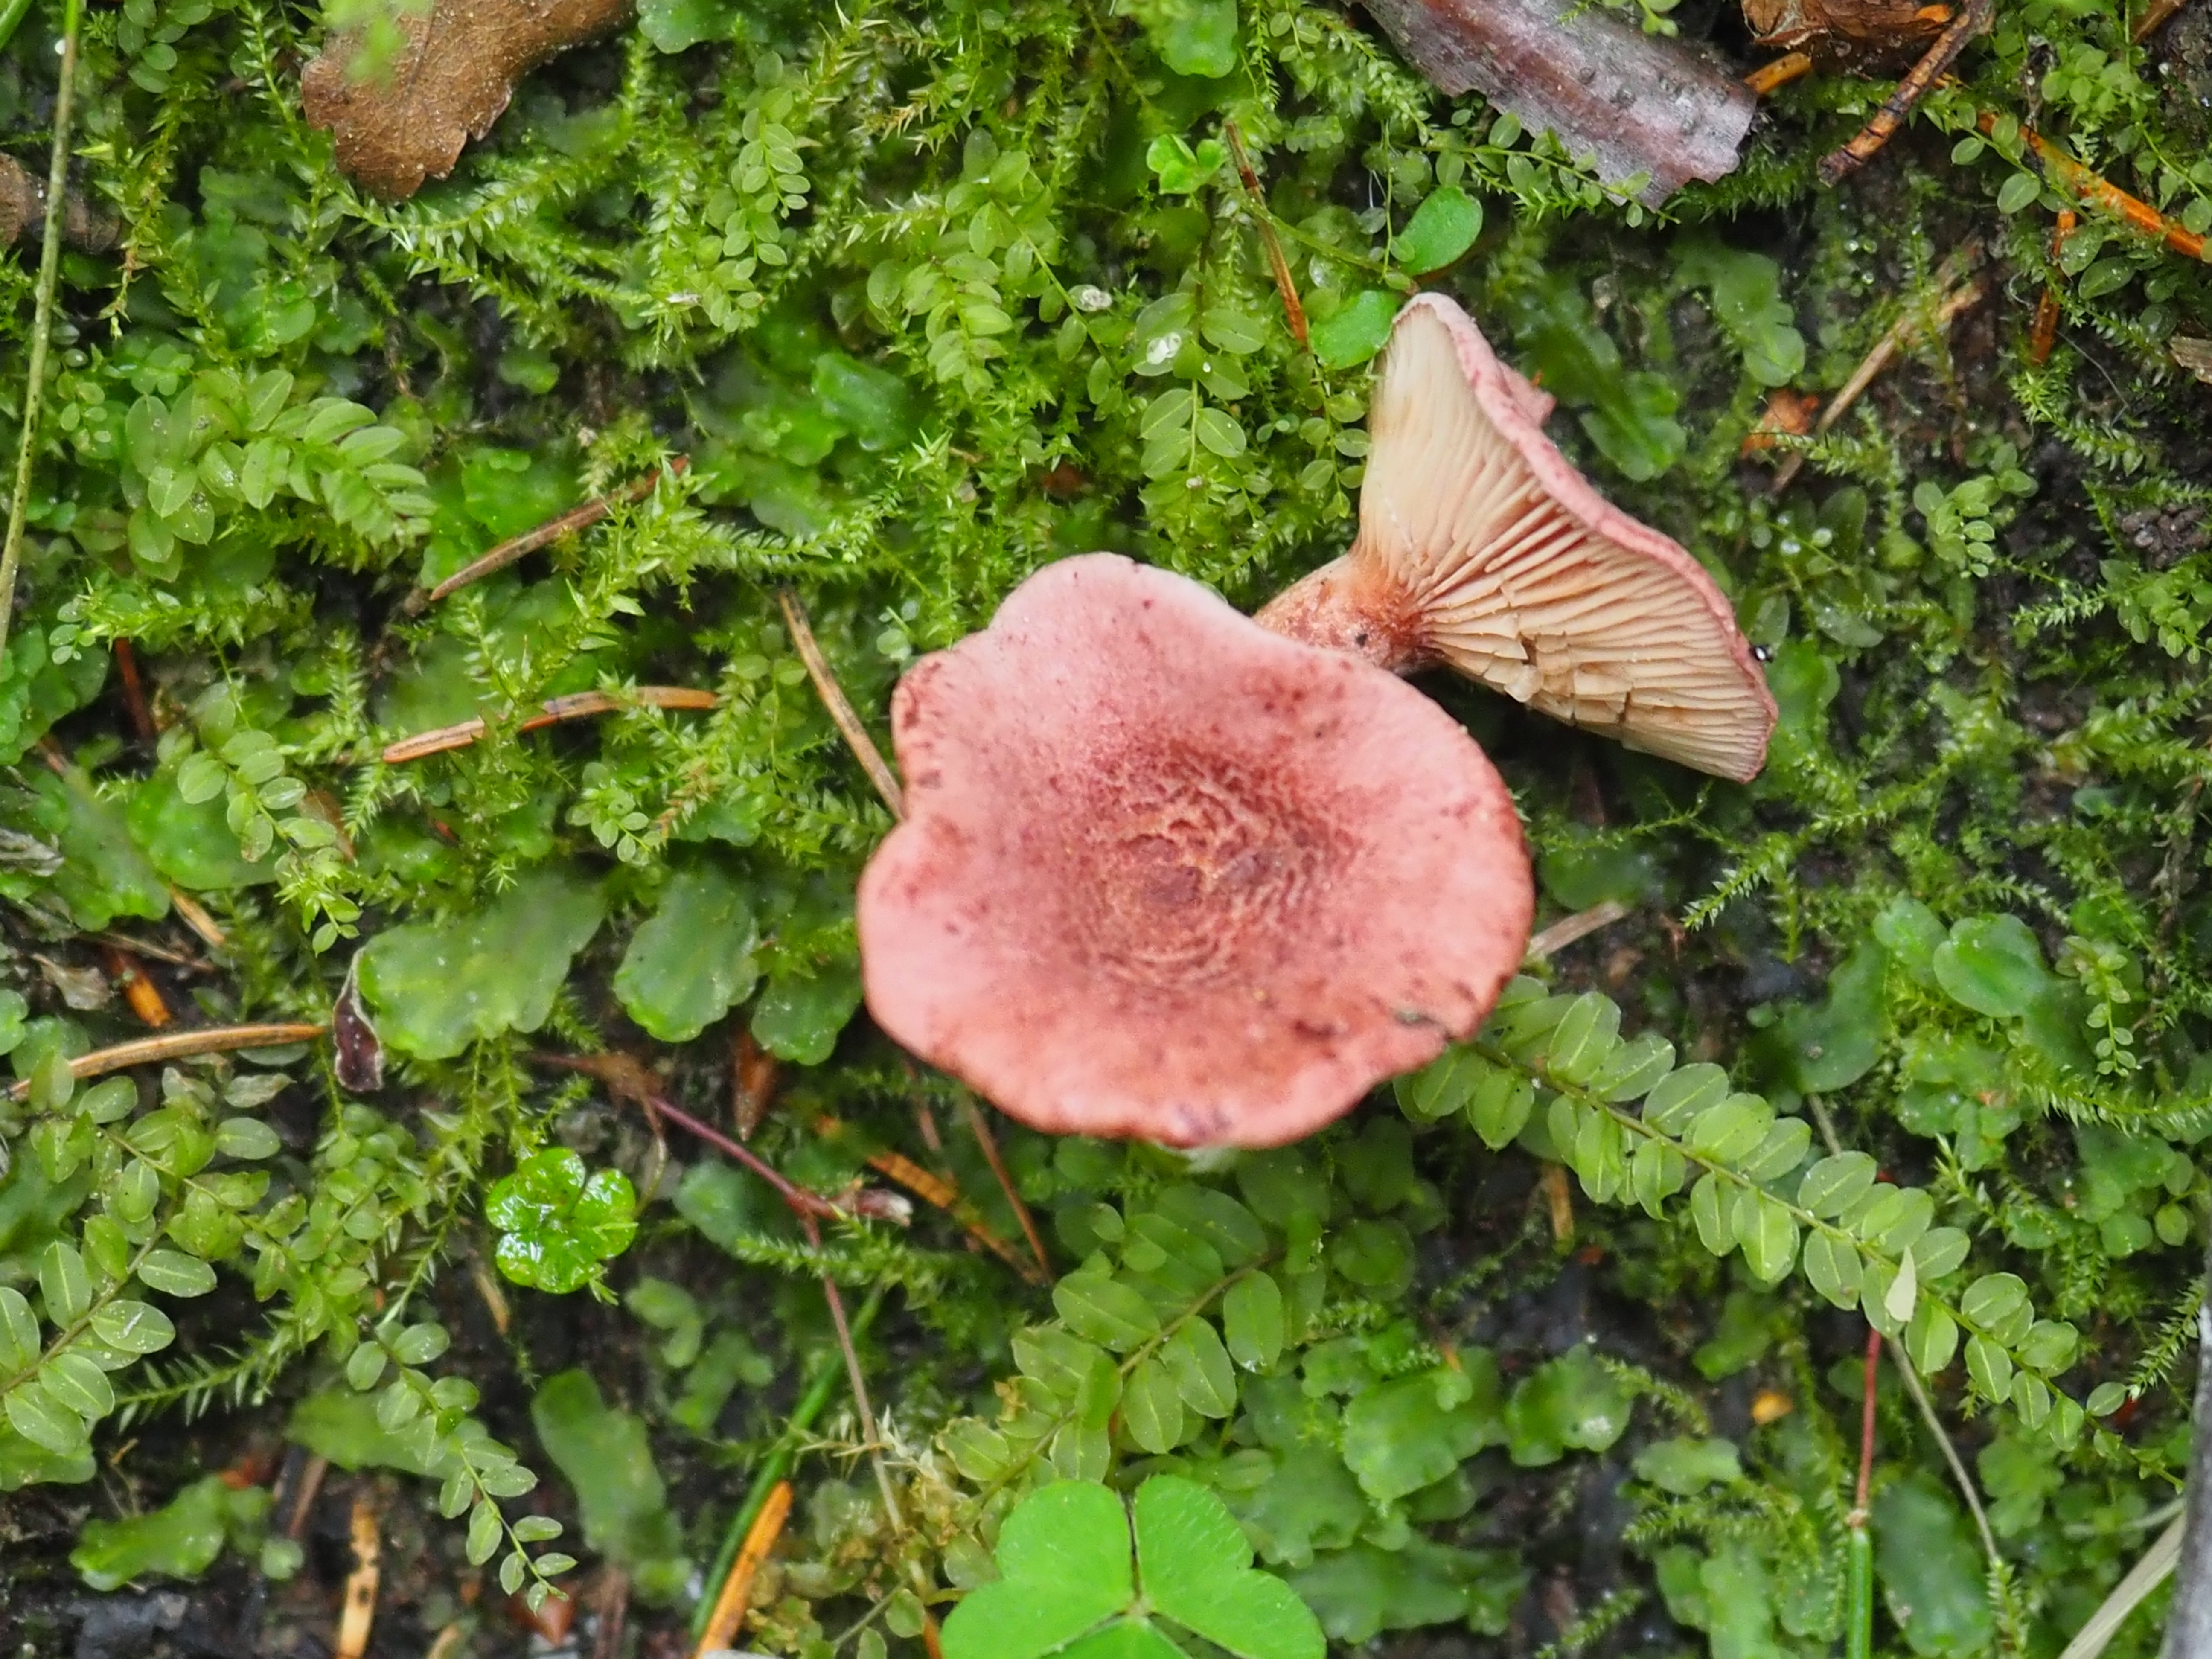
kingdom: Fungi
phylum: Basidiomycota
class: Agaricomycetes
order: Russulales
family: Russulaceae
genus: Lactarius
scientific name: Lactarius lilacinus
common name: Lilac milkcap
